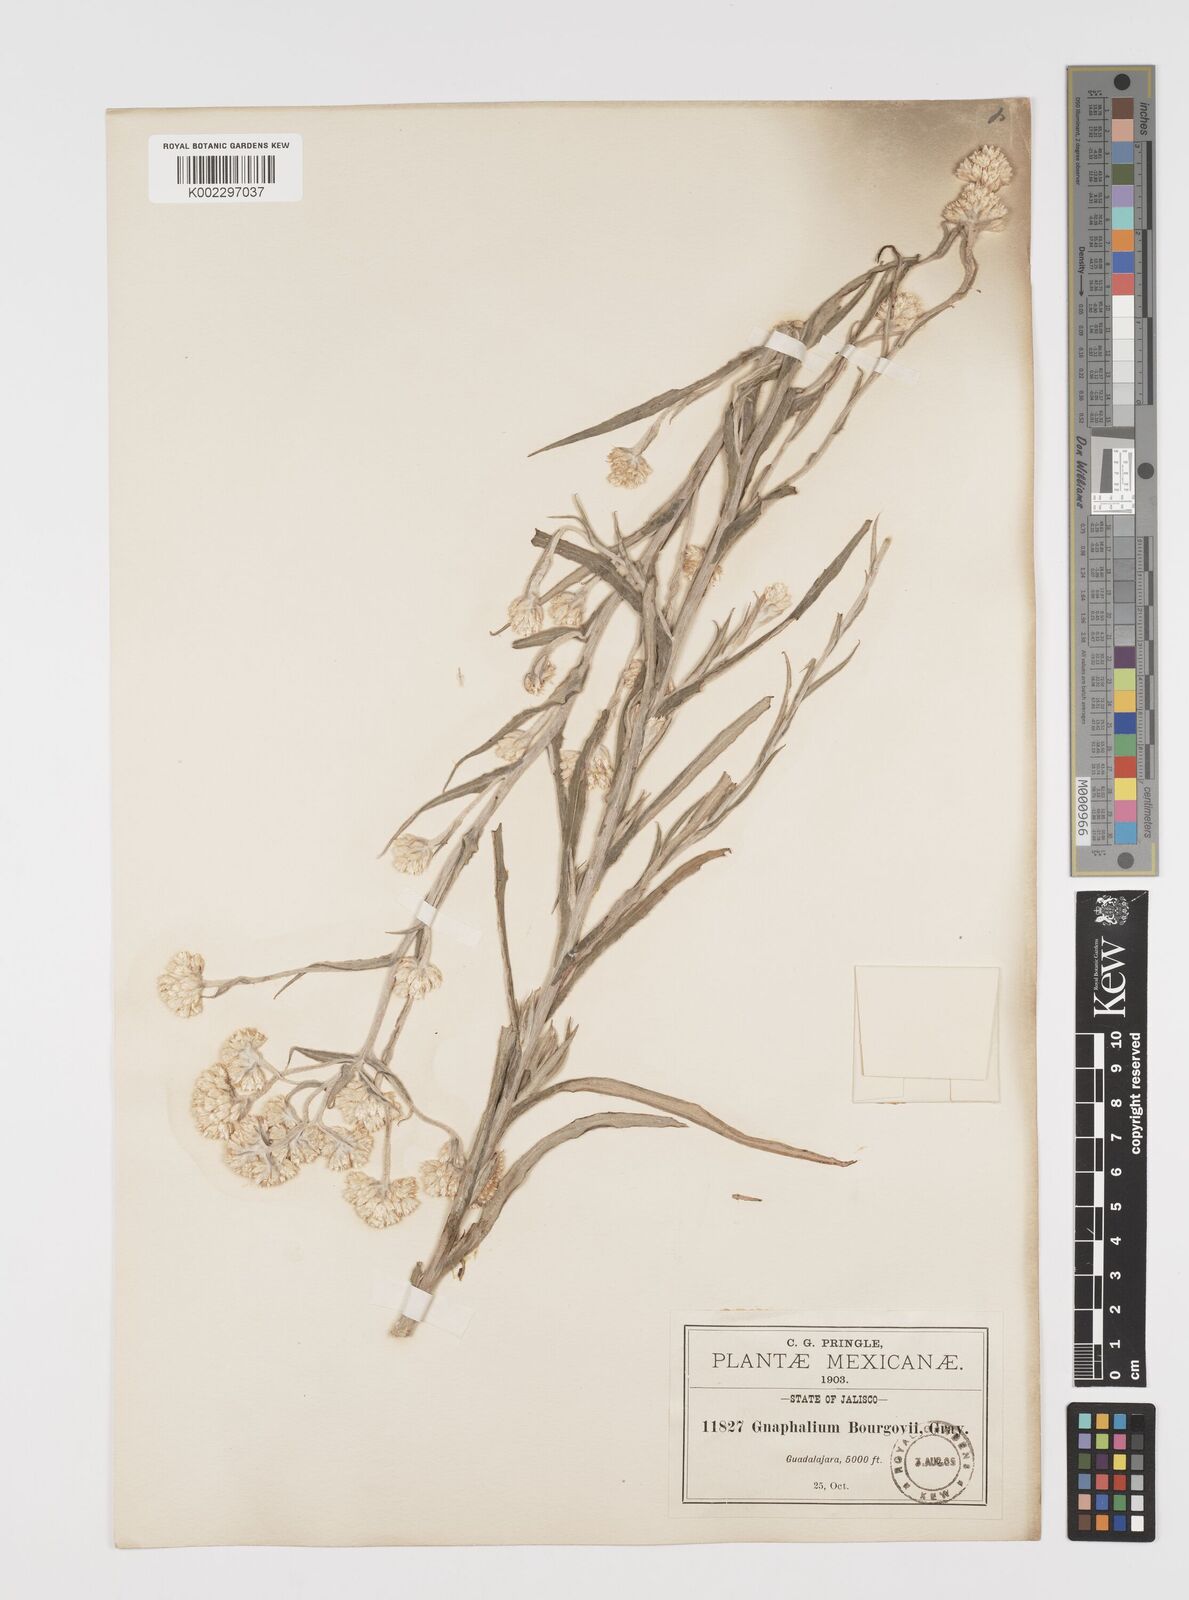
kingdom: Plantae
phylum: Tracheophyta
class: Magnoliopsida
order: Asterales
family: Asteraceae
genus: Pseudognaphalium
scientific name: Pseudognaphalium bourgovii
